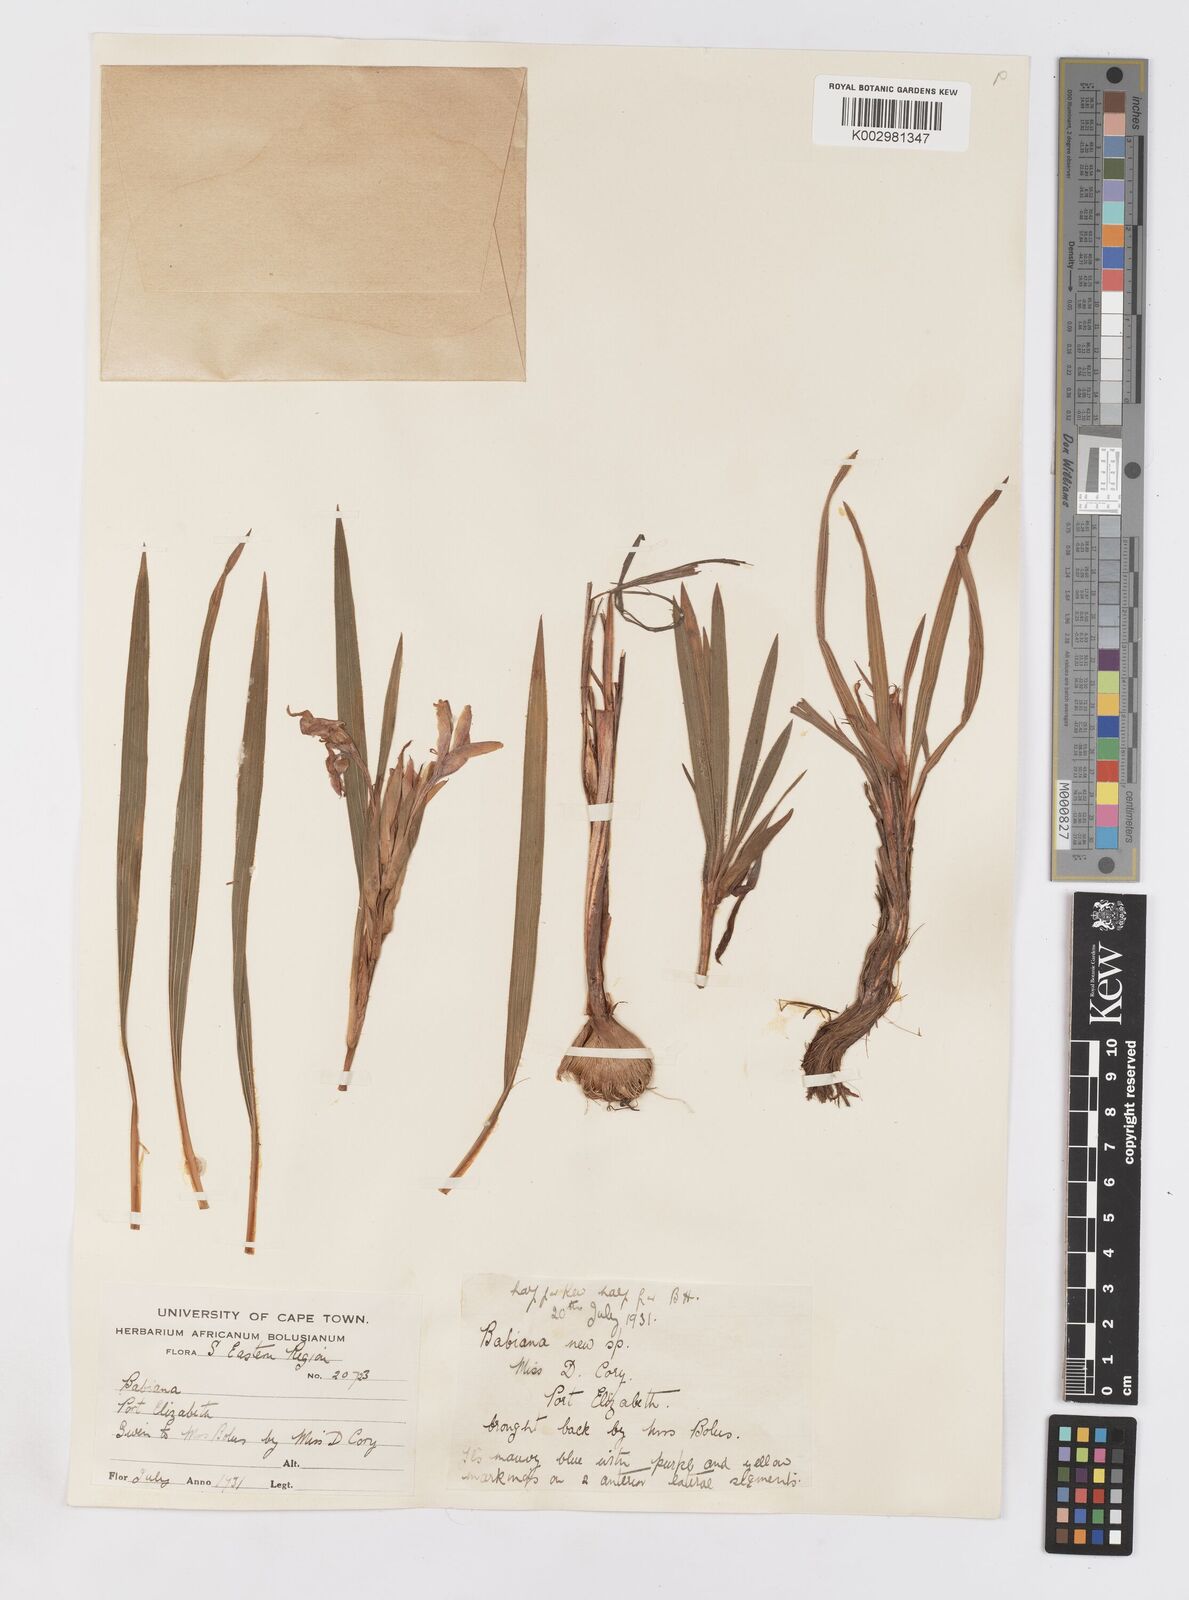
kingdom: Plantae
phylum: Tracheophyta
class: Liliopsida
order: Asparagales
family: Iridaceae
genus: Babiana
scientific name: Babiana
